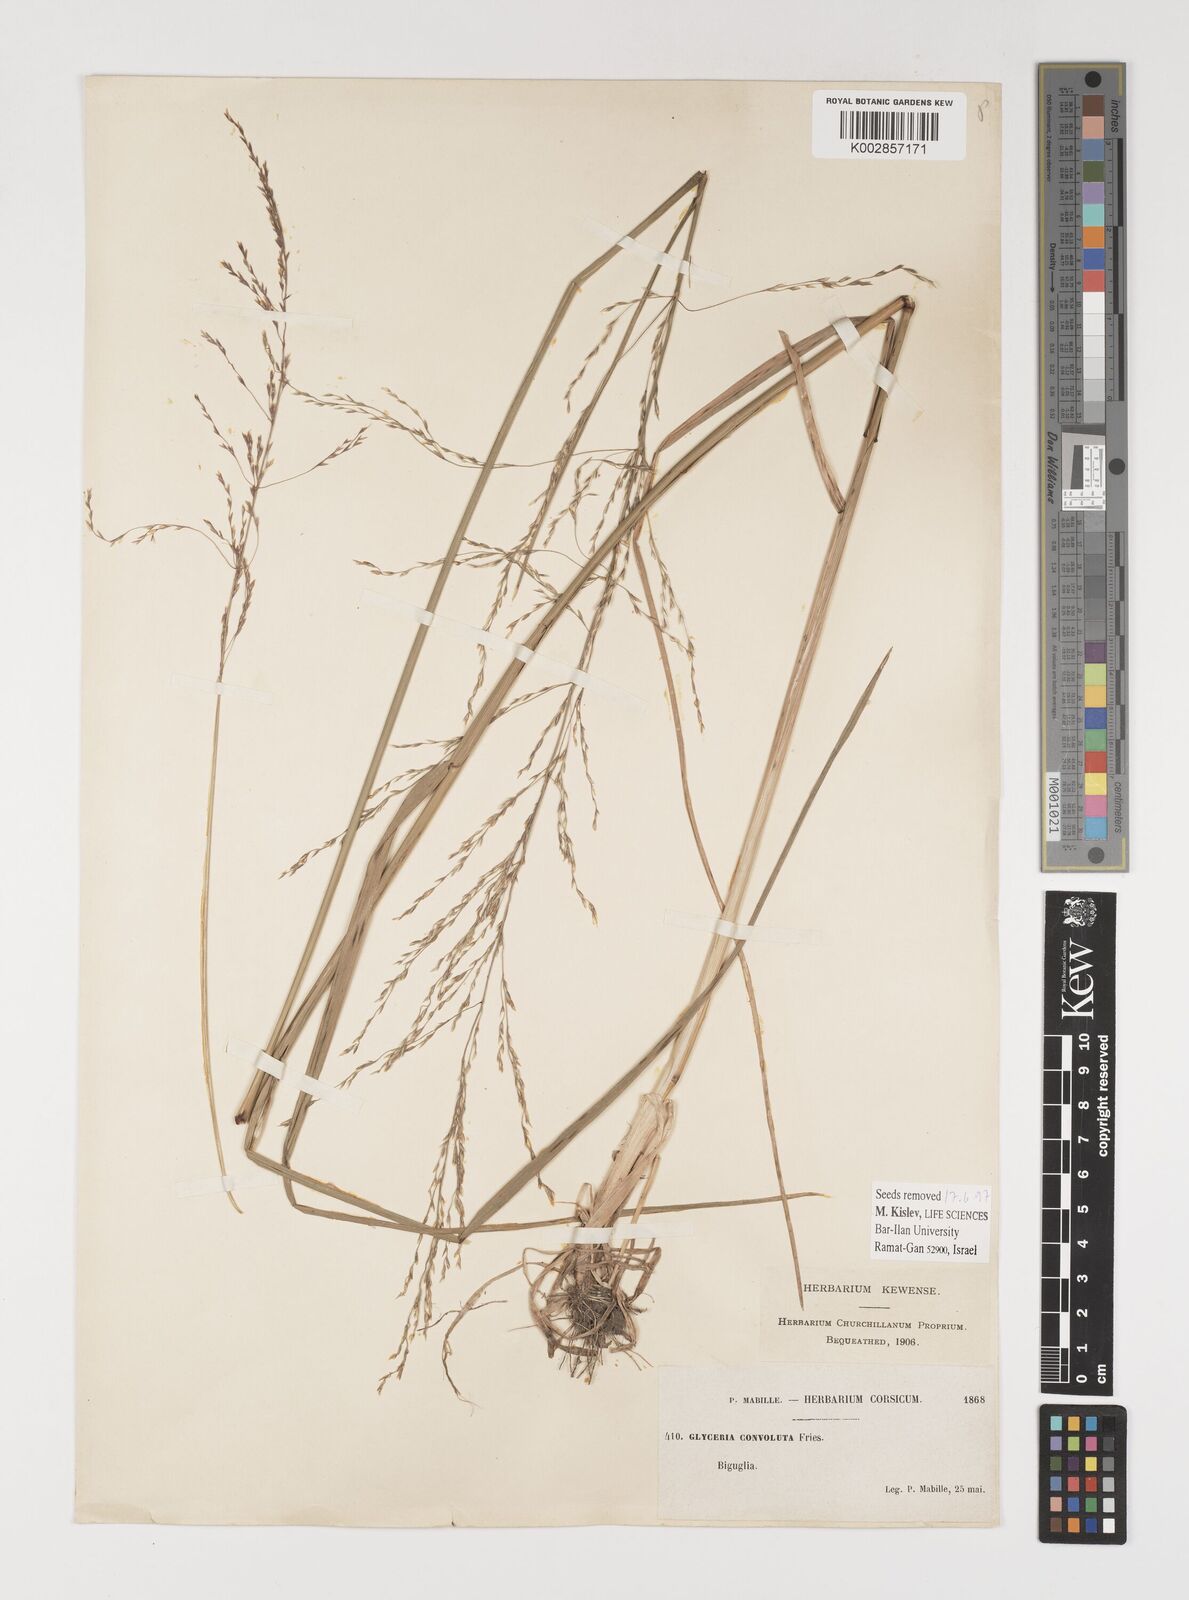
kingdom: Plantae
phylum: Tracheophyta
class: Liliopsida
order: Poales
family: Poaceae
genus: Puccinellia
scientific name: Puccinellia convoluta
